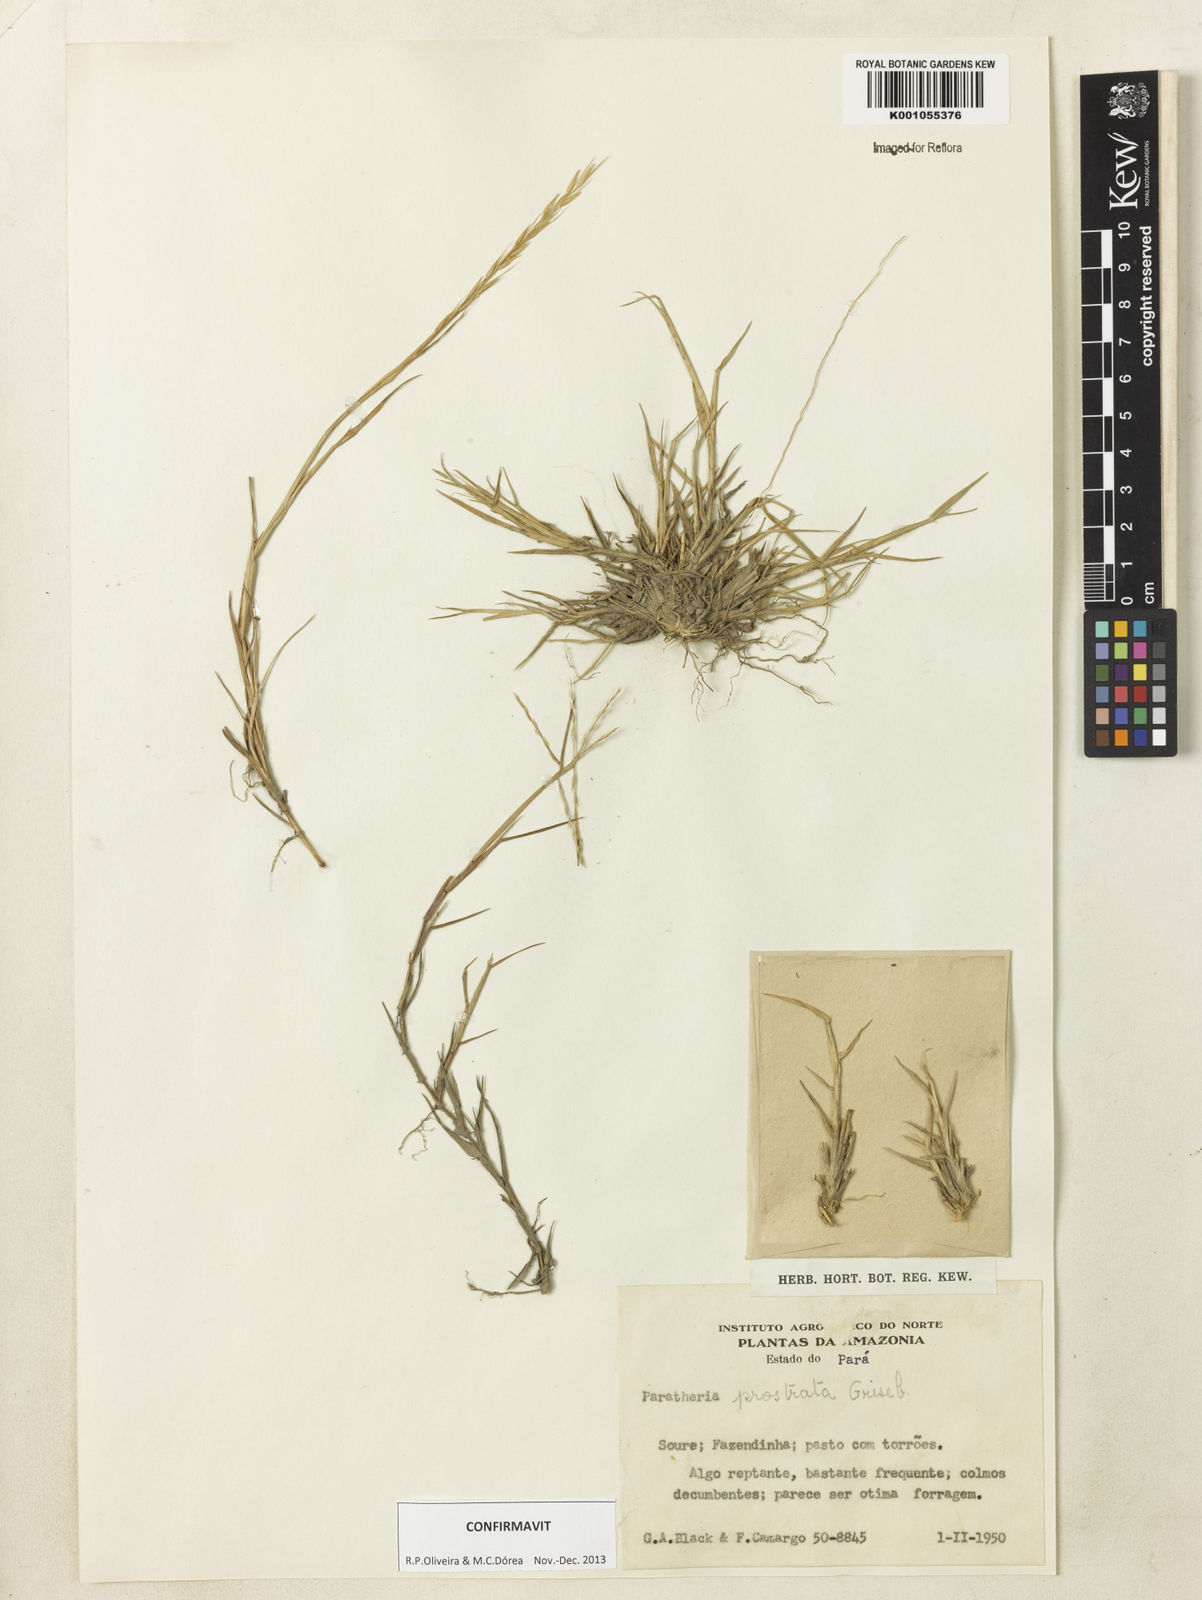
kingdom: Plantae
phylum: Tracheophyta
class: Liliopsida
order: Poales
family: Poaceae
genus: Paratheria
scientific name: Paratheria prostrata
